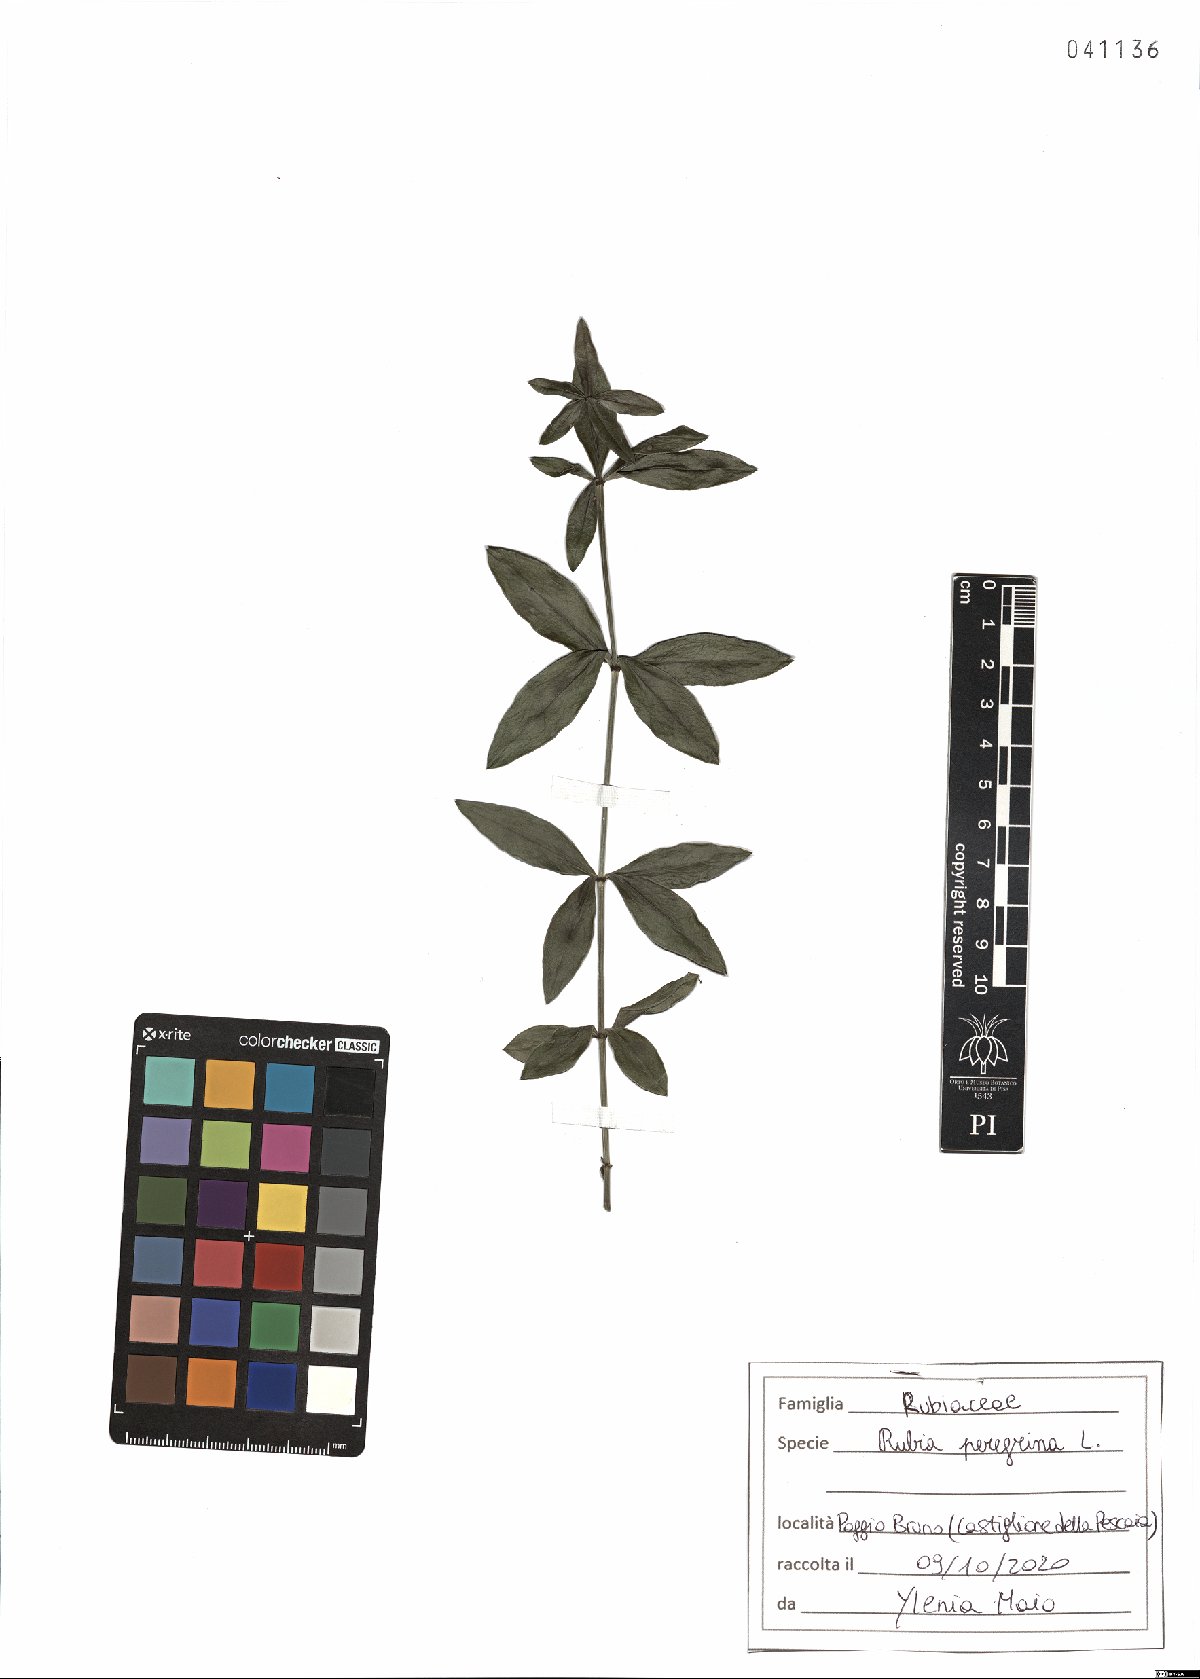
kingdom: Plantae
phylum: Tracheophyta
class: Magnoliopsida
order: Gentianales
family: Rubiaceae
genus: Rubia
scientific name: Rubia peregrina
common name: Wild madder
